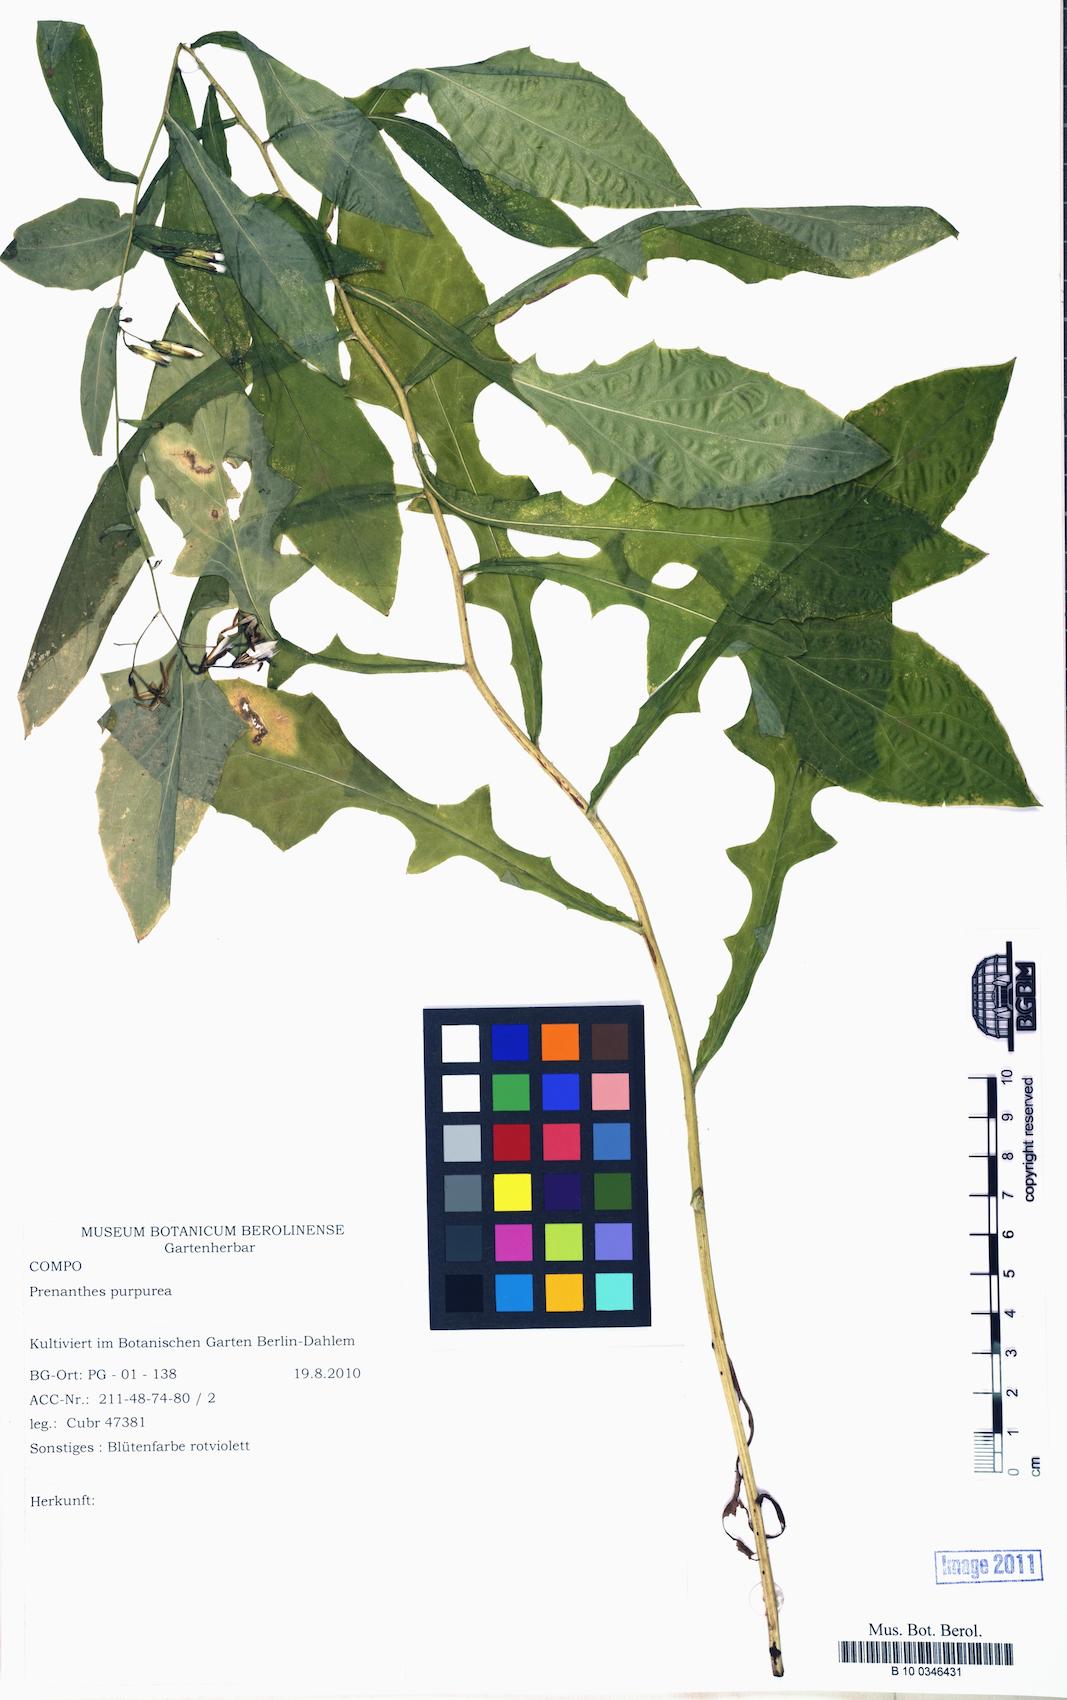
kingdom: Plantae
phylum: Tracheophyta
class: Magnoliopsida
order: Asterales
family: Asteraceae
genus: Prenanthes
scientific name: Prenanthes purpurea
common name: Purple lettuce
